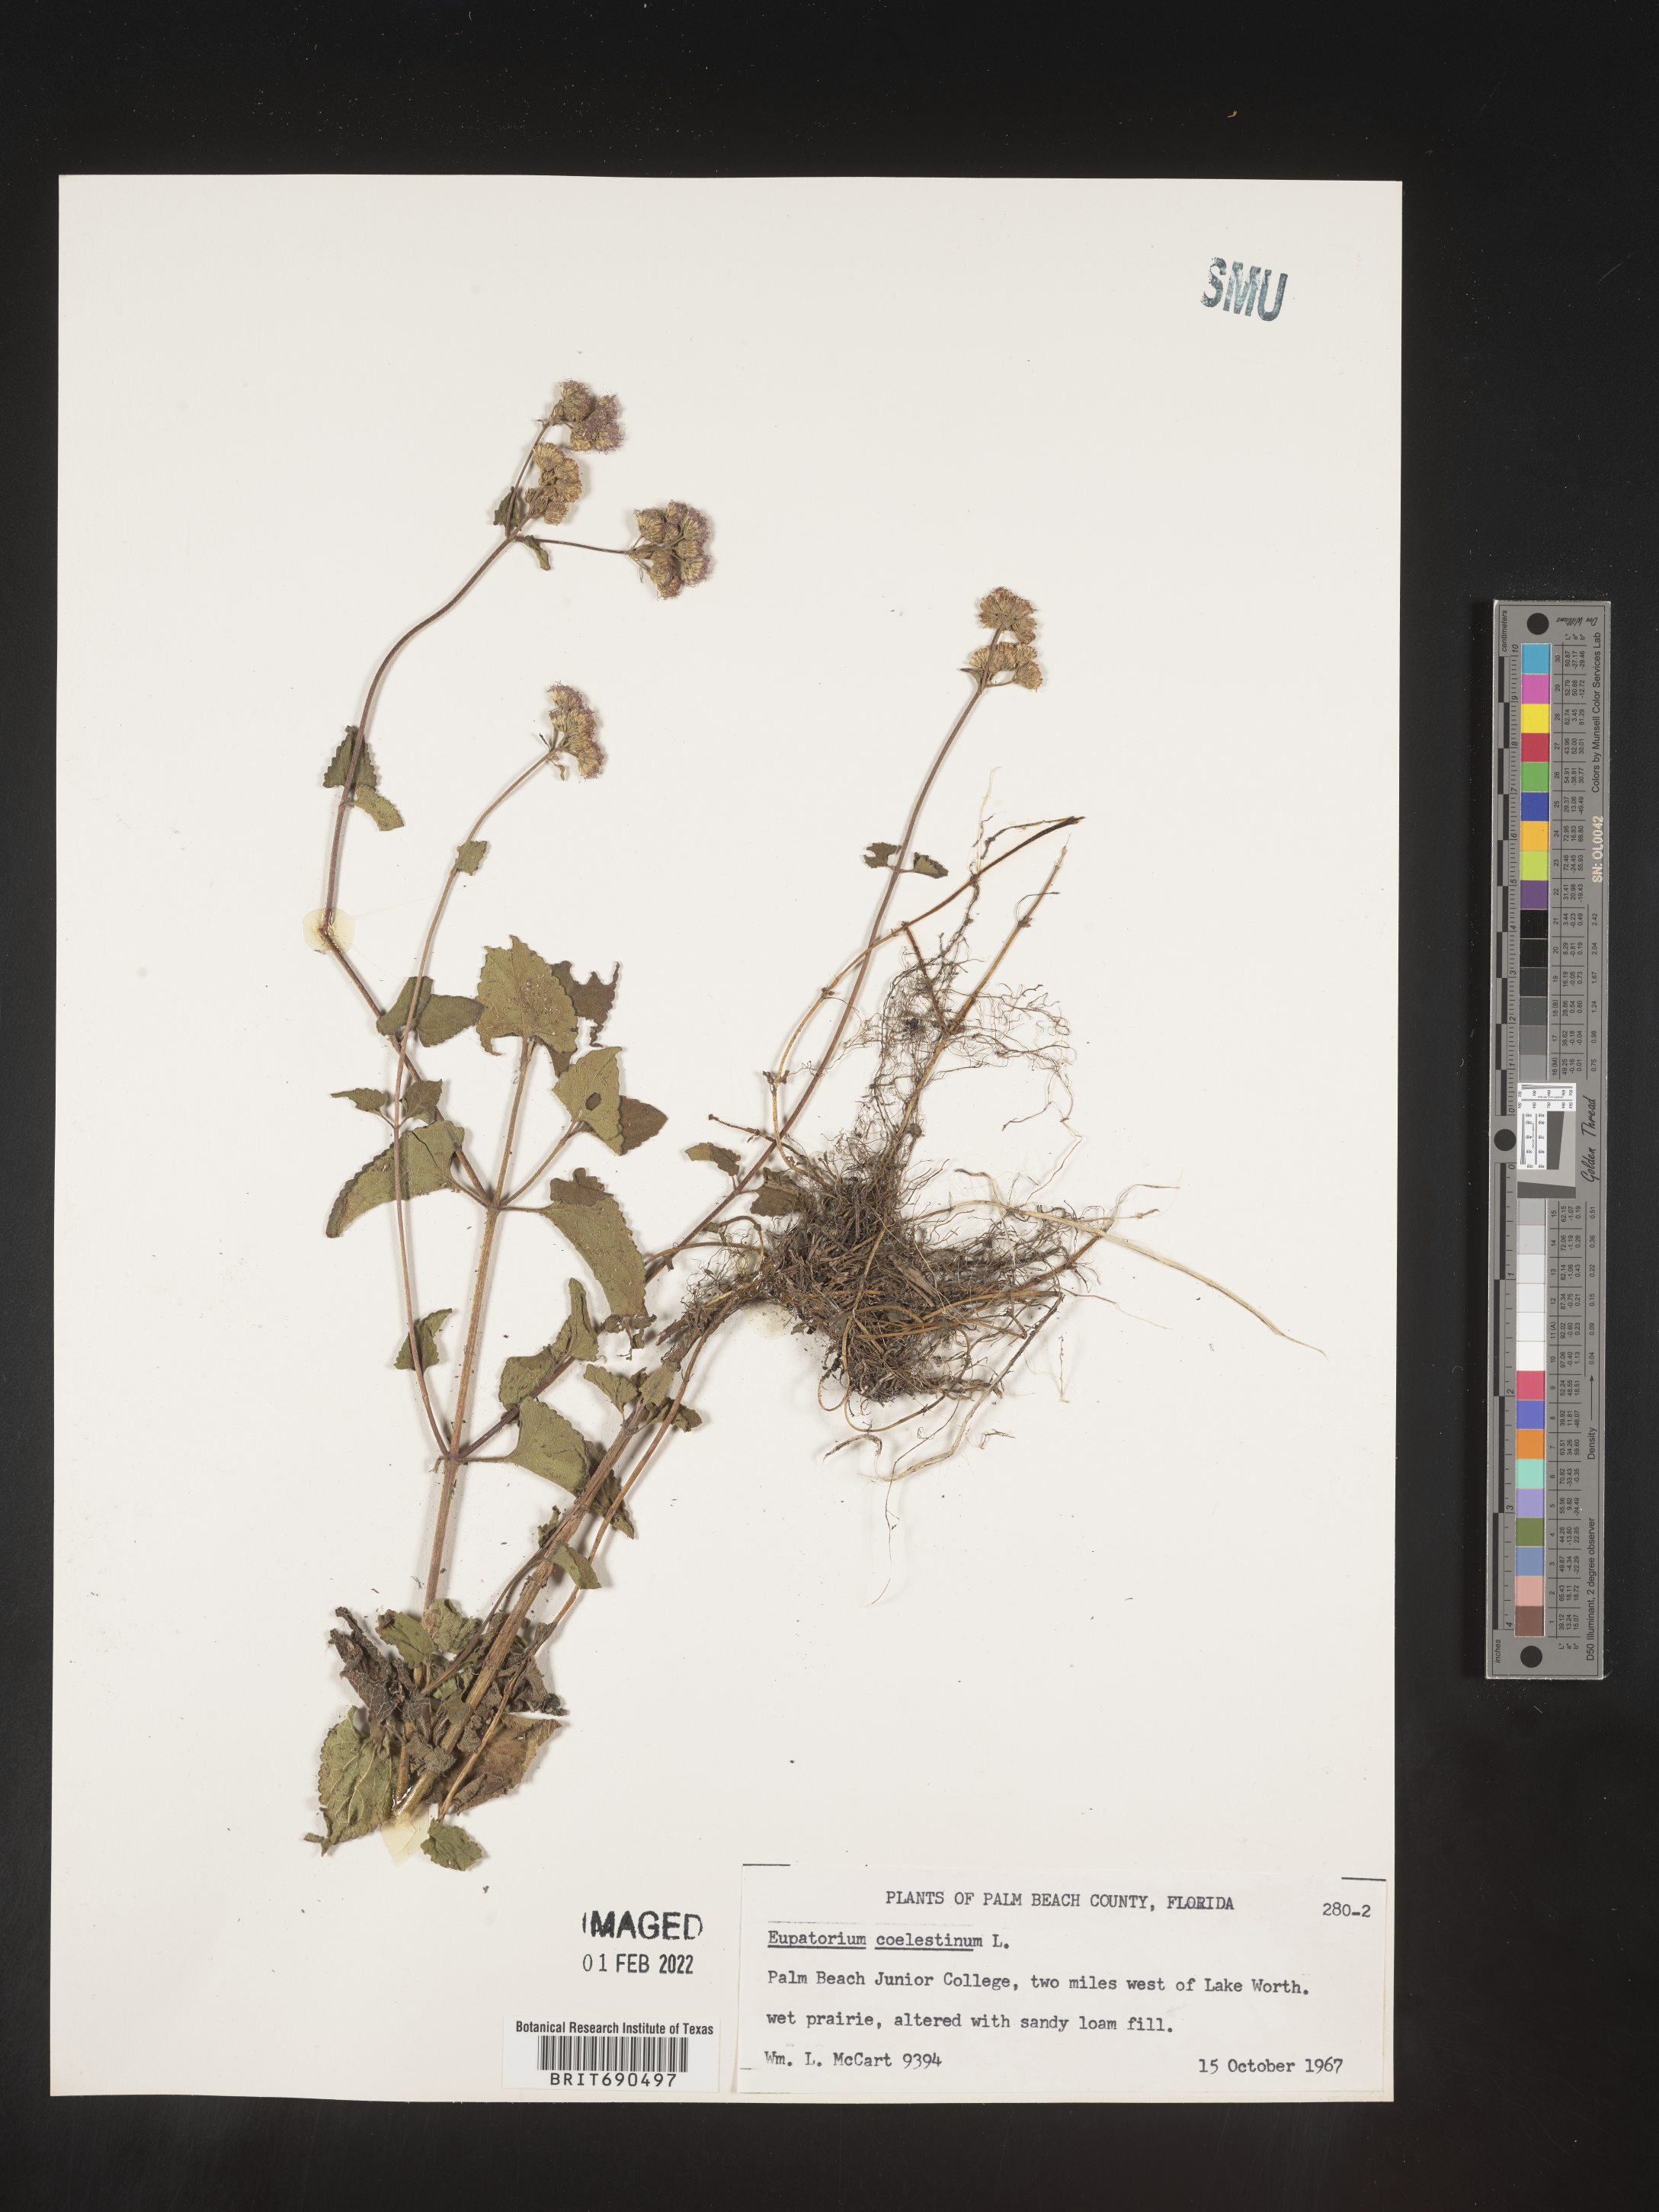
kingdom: Plantae
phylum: Tracheophyta
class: Magnoliopsida
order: Asterales
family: Asteraceae
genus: Conoclinium
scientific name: Conoclinium coelestinum
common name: Blue mistflower
